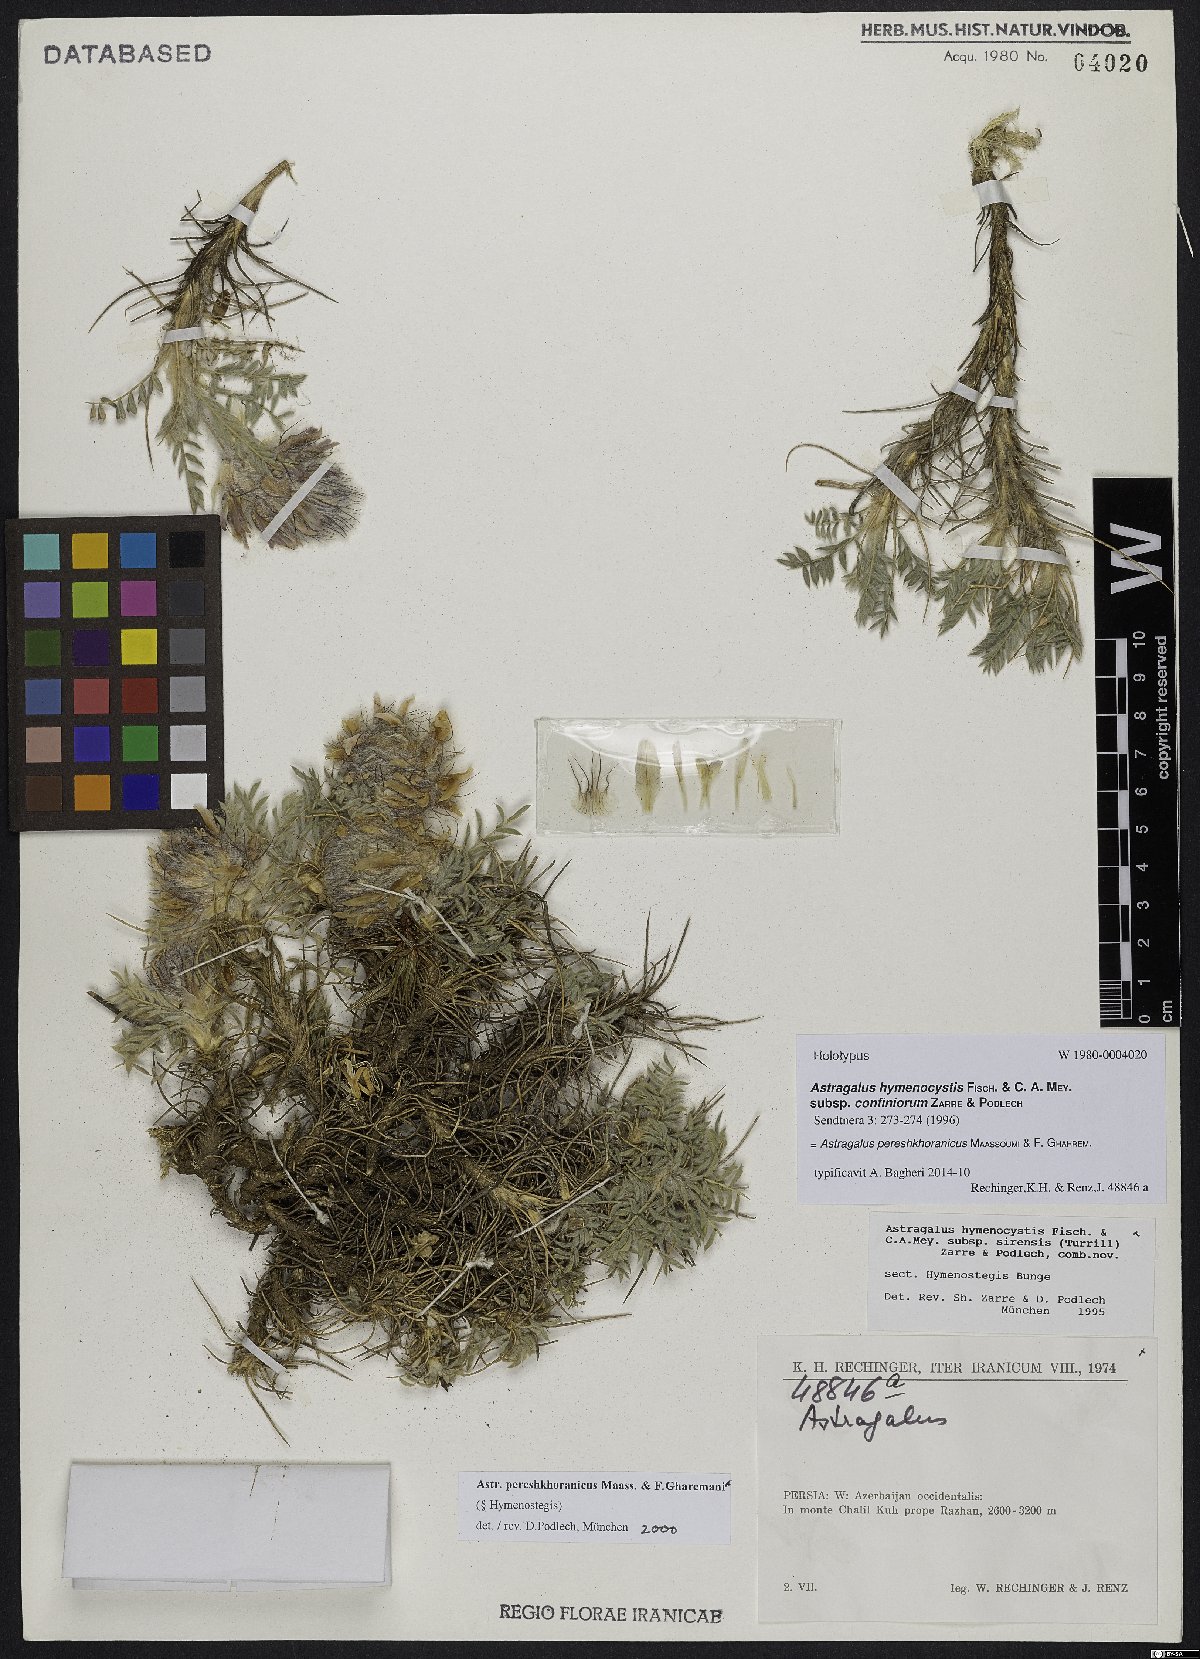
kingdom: Plantae
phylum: Tracheophyta
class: Magnoliopsida
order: Fabales
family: Fabaceae
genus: Astragalus
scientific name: Astragalus pereshkhoranicus
